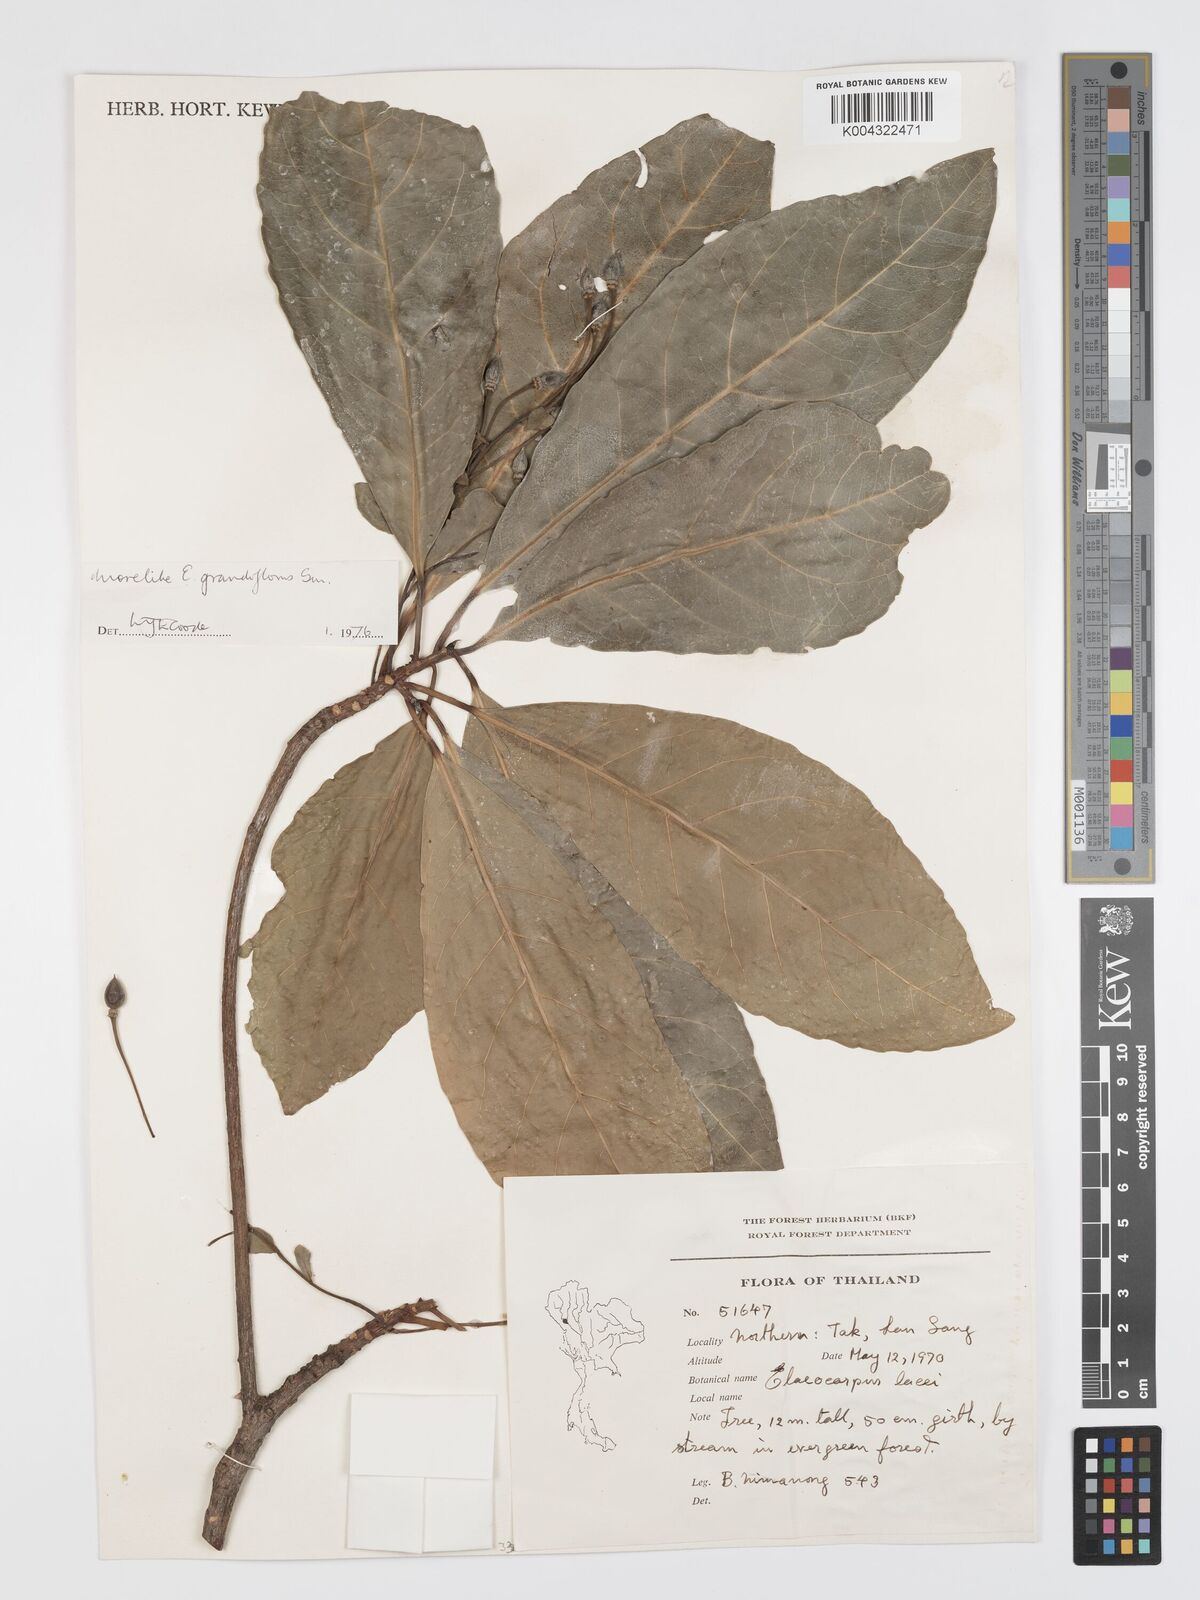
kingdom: Plantae
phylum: Tracheophyta
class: Magnoliopsida
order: Oxalidales
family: Elaeocarpaceae
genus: Elaeocarpus
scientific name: Elaeocarpus grandiflorus
